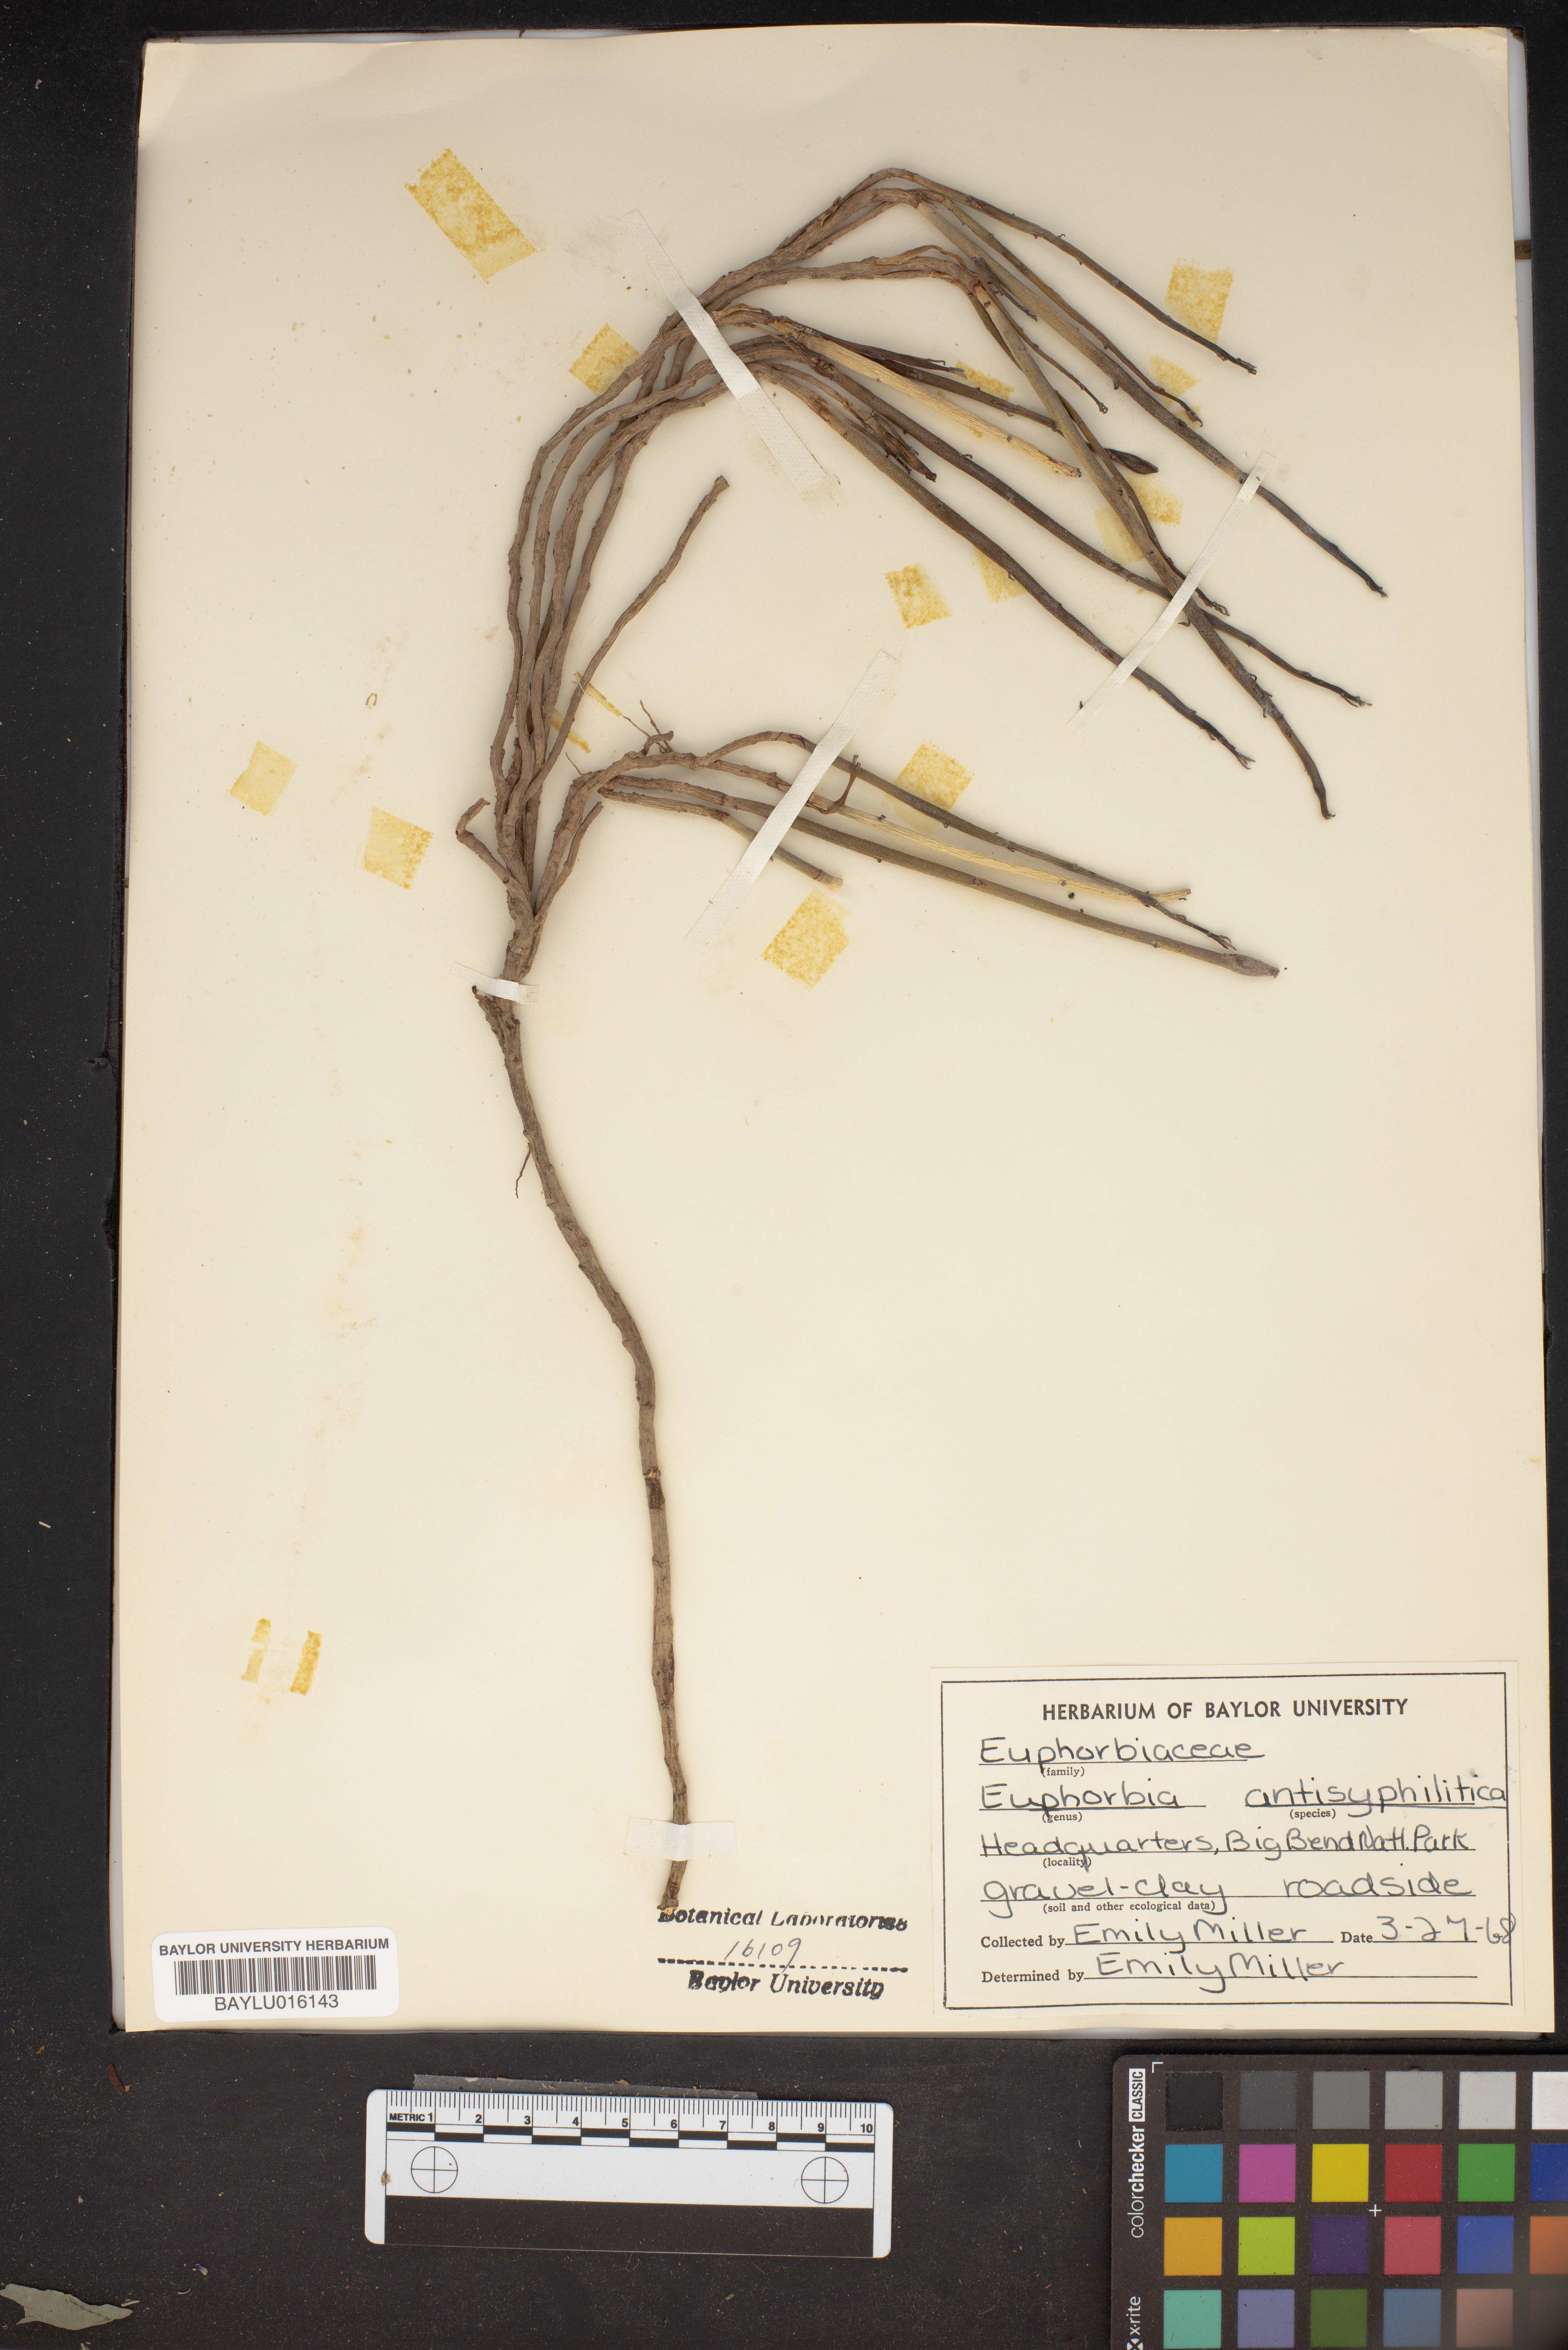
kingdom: Plantae
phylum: Tracheophyta
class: Magnoliopsida
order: Malpighiales
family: Euphorbiaceae
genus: Euphorbia
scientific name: Euphorbia antisyphilitica
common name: Candelilla
